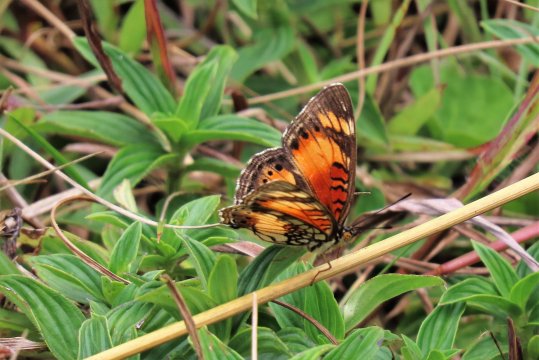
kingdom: Animalia
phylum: Arthropoda
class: Insecta
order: Lepidoptera
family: Nymphalidae
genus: Junonia
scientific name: Junonia sophia
